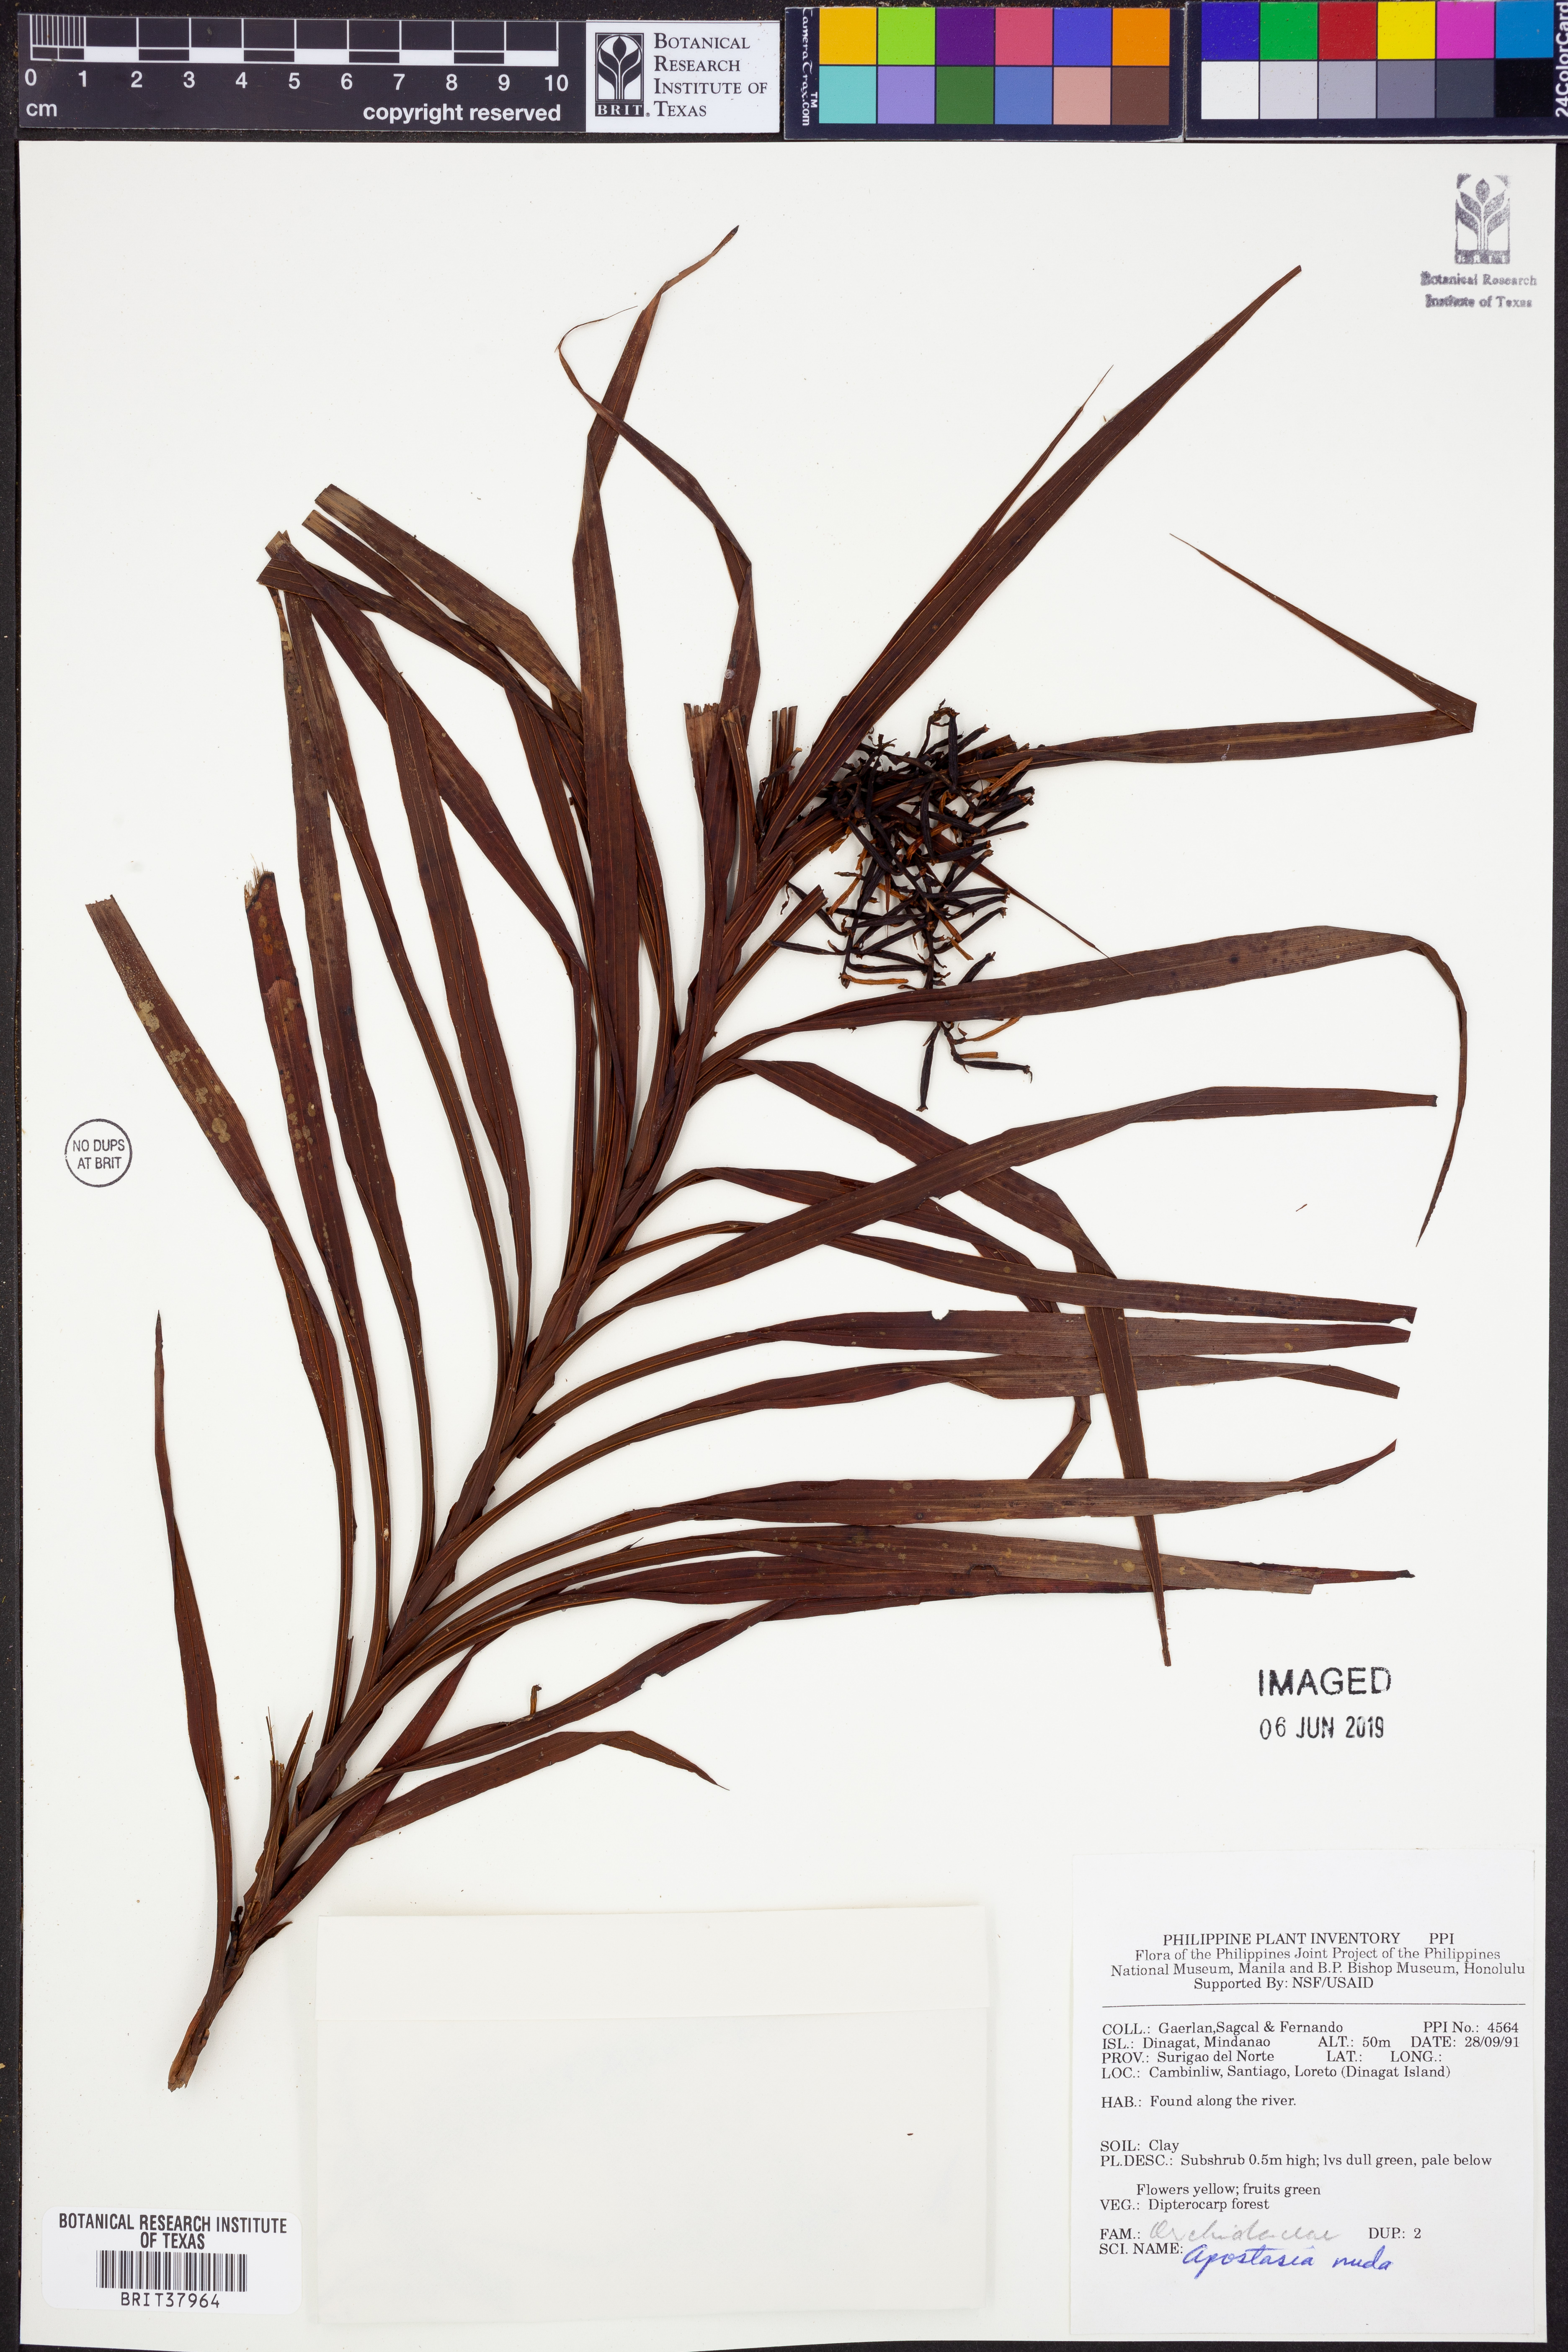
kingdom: Plantae
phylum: Tracheophyta
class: Liliopsida
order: Asparagales
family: Orchidaceae
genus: Apostasia
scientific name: Apostasia nuda
